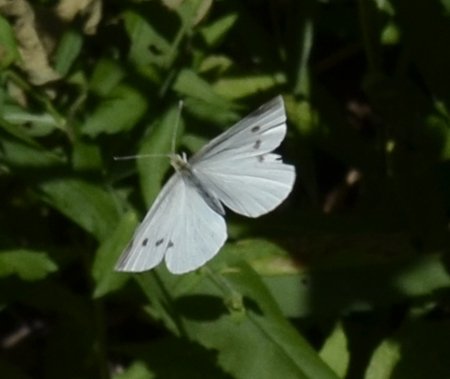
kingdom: Animalia
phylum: Arthropoda
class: Insecta
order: Lepidoptera
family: Pieridae
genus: Pieris
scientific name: Pieris rapae
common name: Cabbage White
